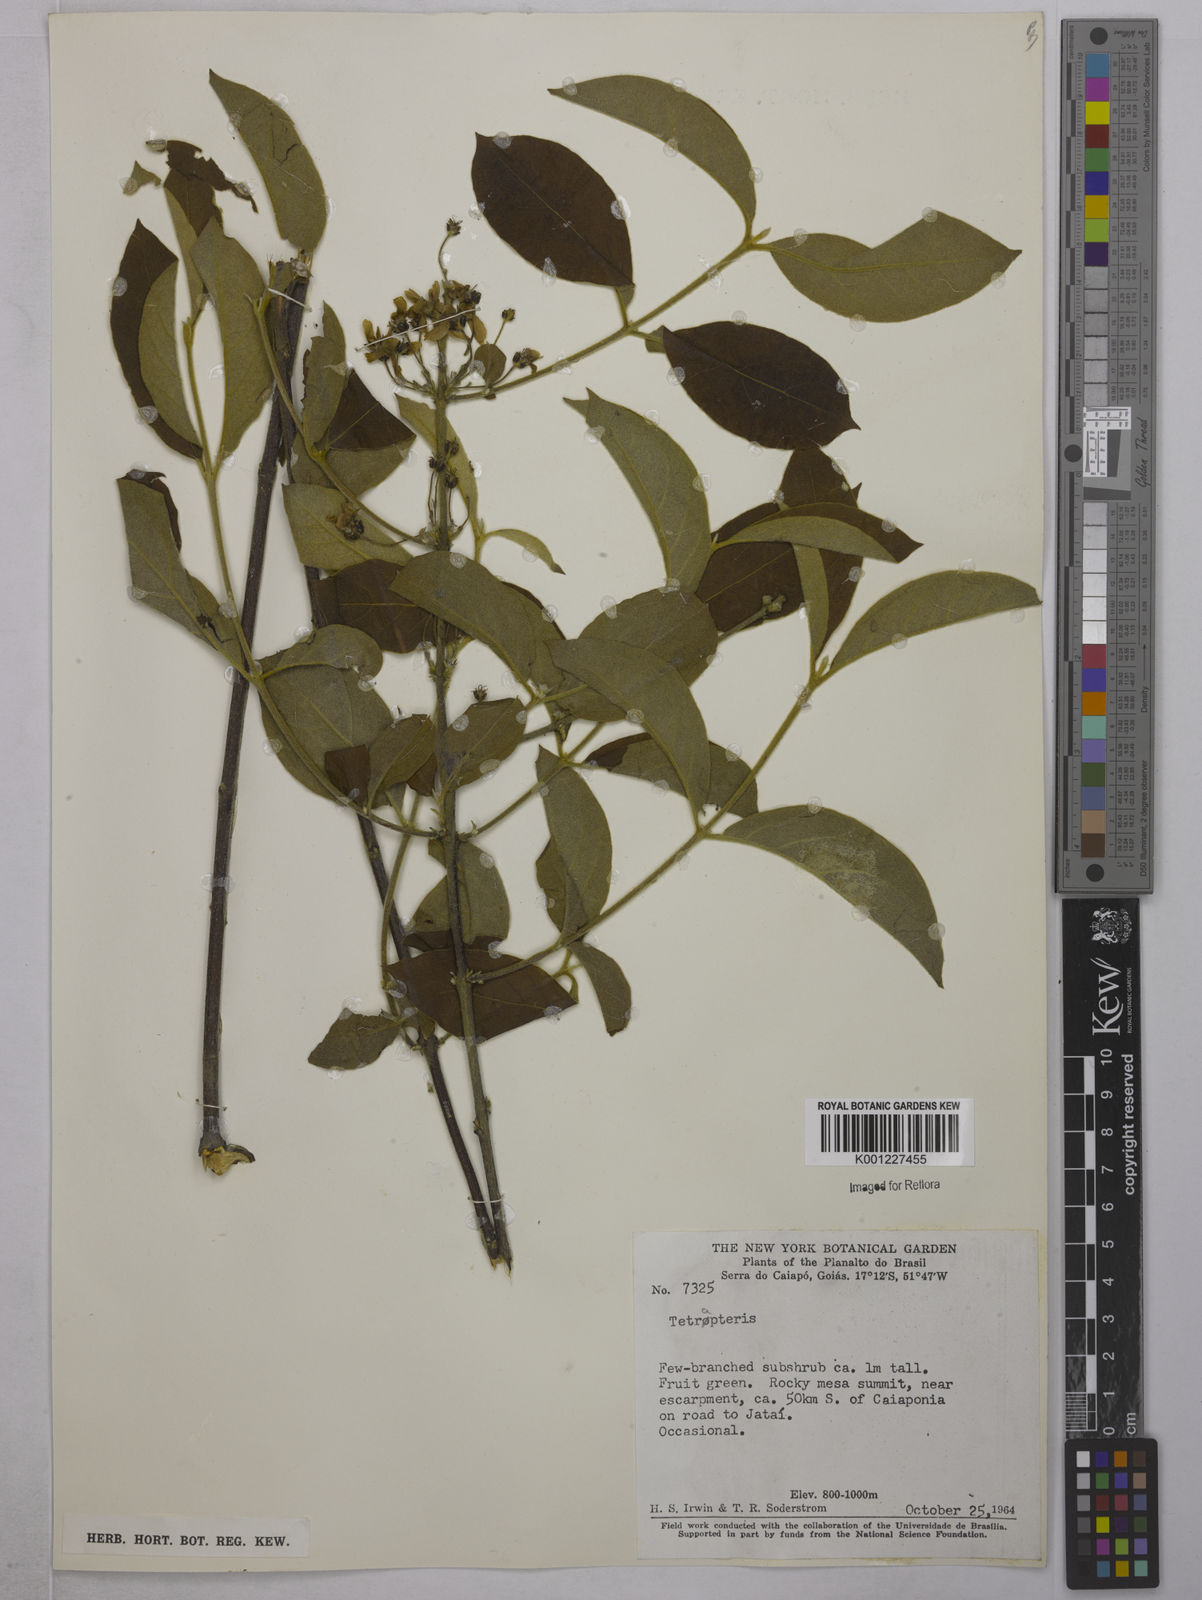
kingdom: Plantae
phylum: Tracheophyta
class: Magnoliopsida
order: Malpighiales
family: Malpighiaceae
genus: Tetrapterys
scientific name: Tetrapterys
